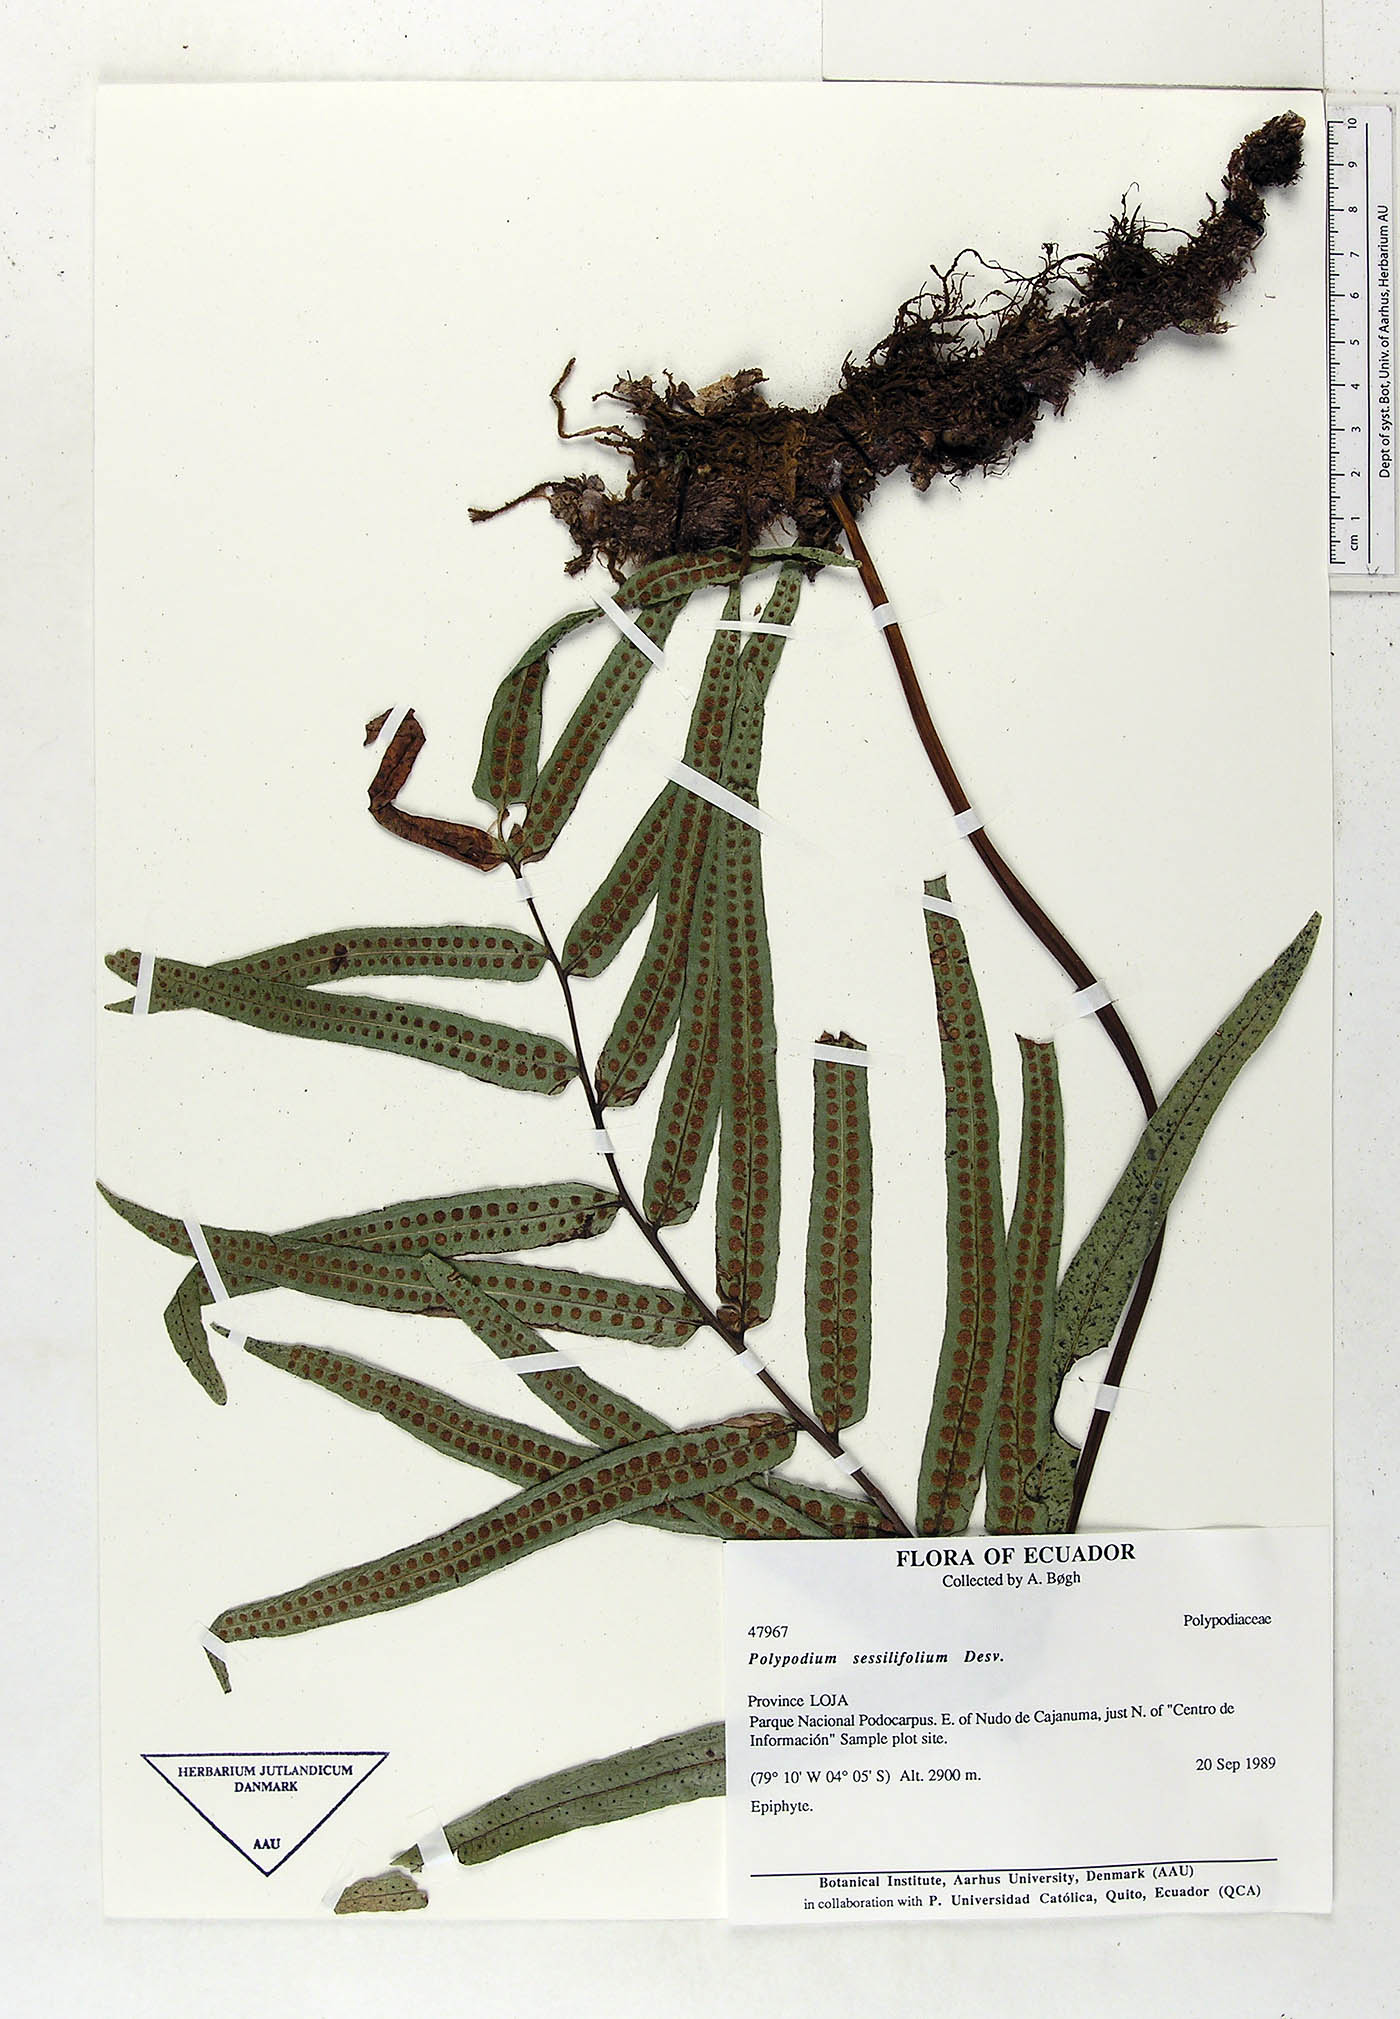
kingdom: Plantae
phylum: Tracheophyta
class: Polypodiopsida
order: Polypodiales
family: Polypodiaceae
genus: Serpocaulon
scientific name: Serpocaulon sessilifolium
